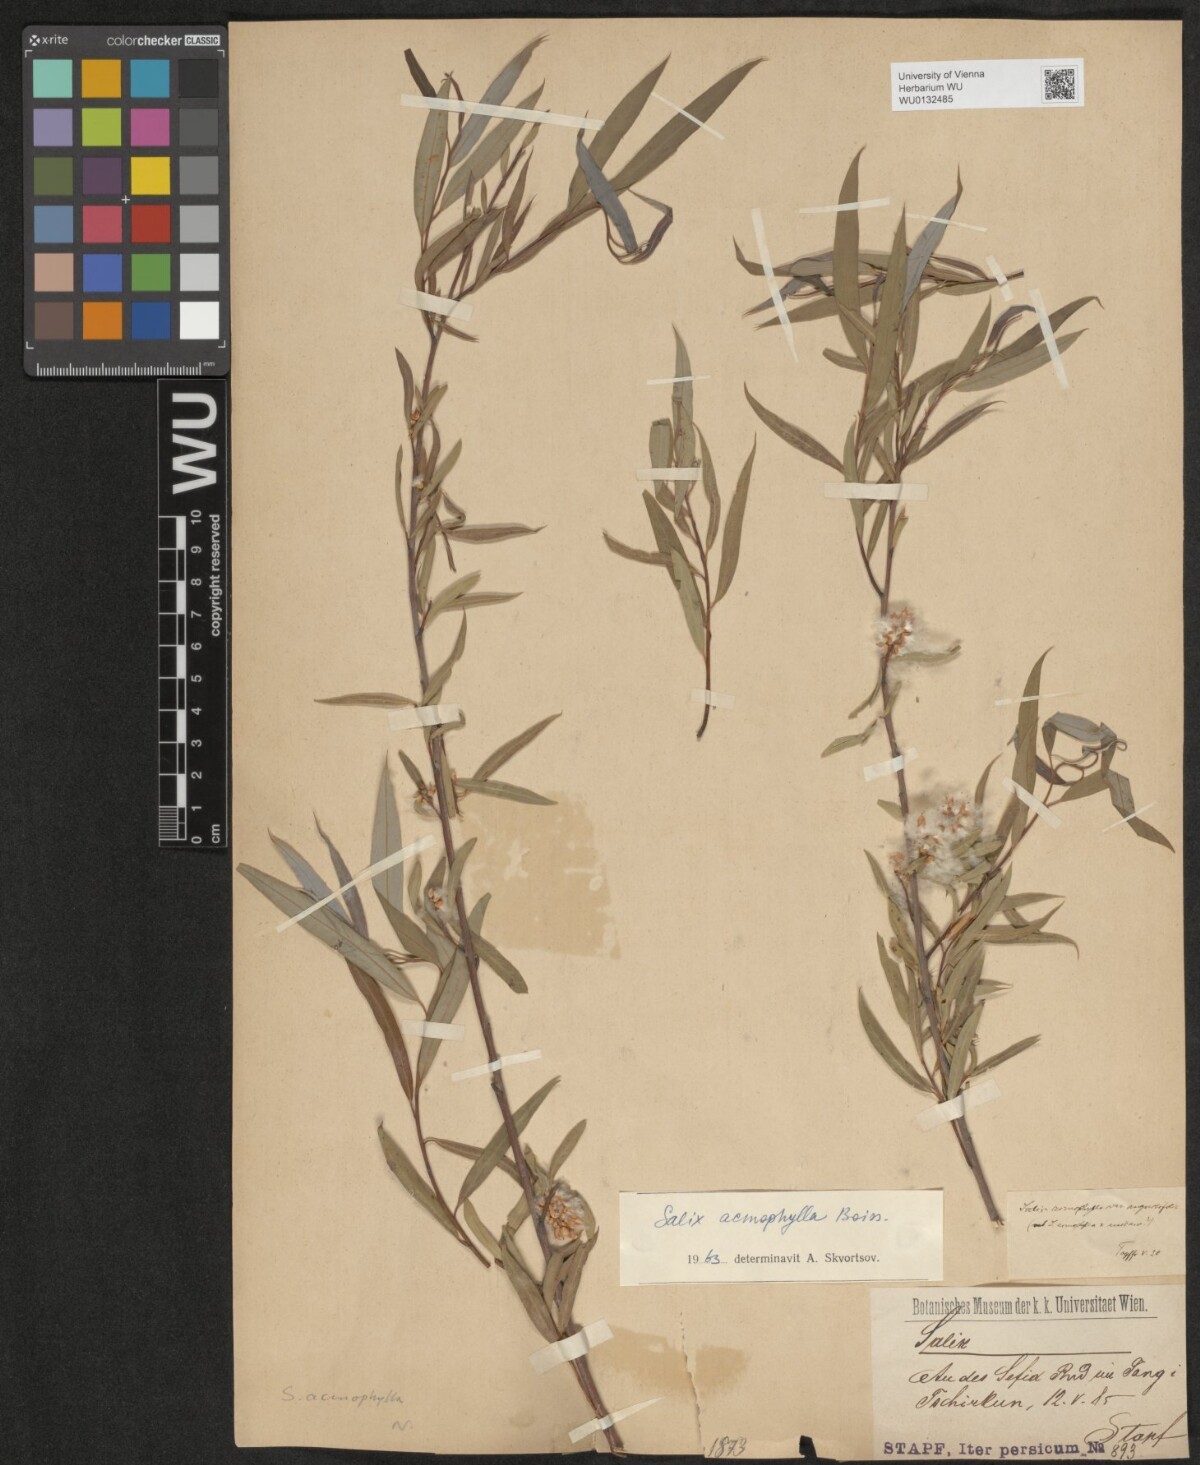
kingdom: Plantae
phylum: Tracheophyta
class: Magnoliopsida
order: Malpighiales
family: Salicaceae
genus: Salix
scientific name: Salix acmophylla
